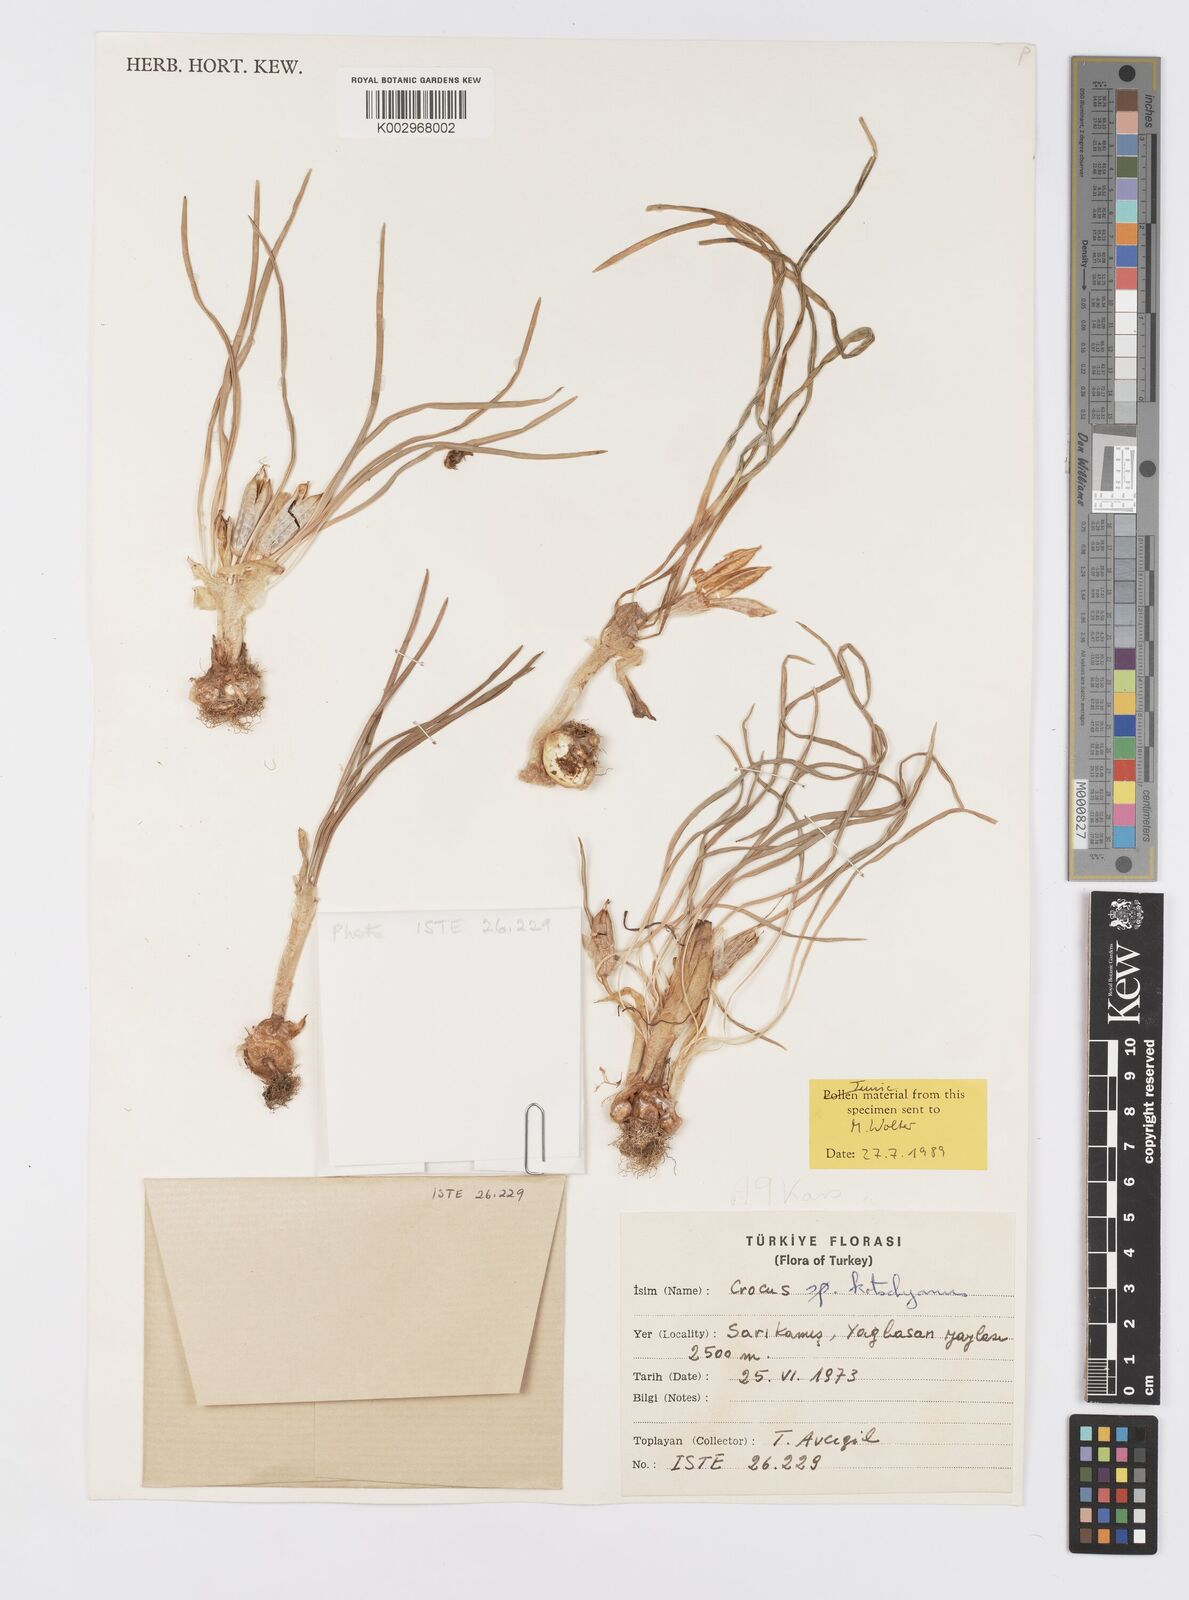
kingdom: Plantae
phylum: Tracheophyta
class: Liliopsida
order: Asparagales
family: Iridaceae
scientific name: Iridaceae
